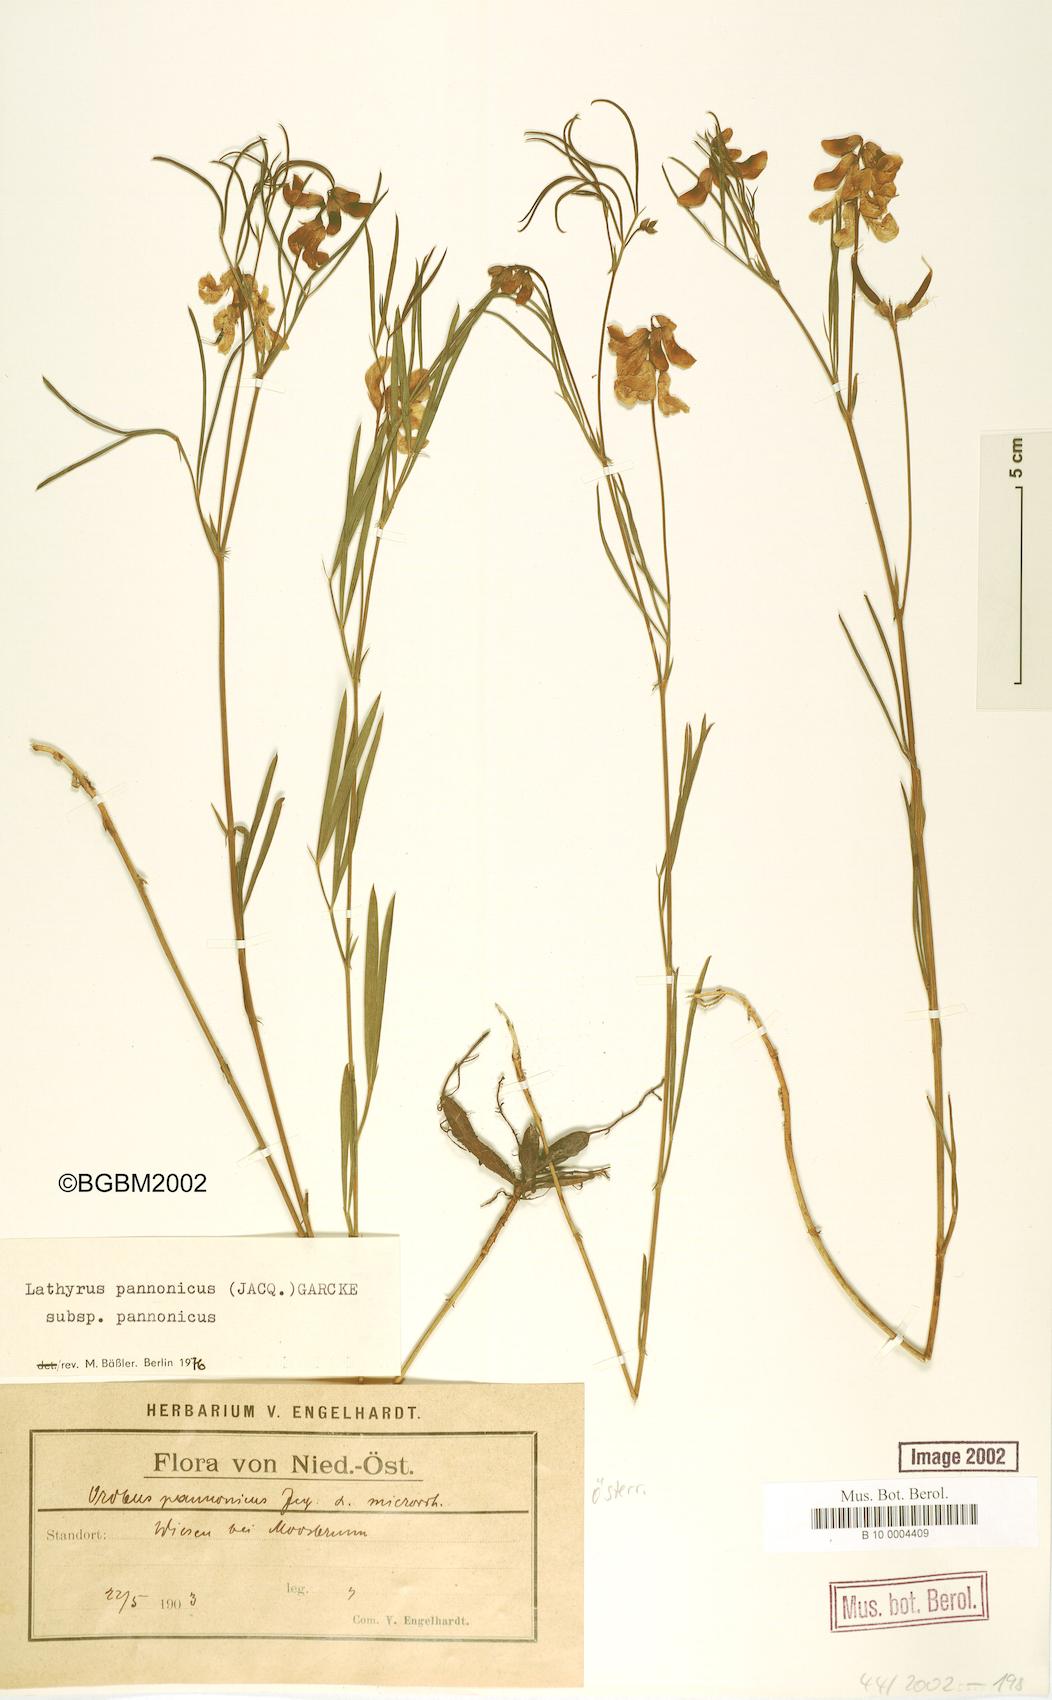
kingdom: Plantae
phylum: Tracheophyta
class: Magnoliopsida
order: Fabales
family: Fabaceae
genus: Lathyrus
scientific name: Lathyrus pannonicus
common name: Pea
